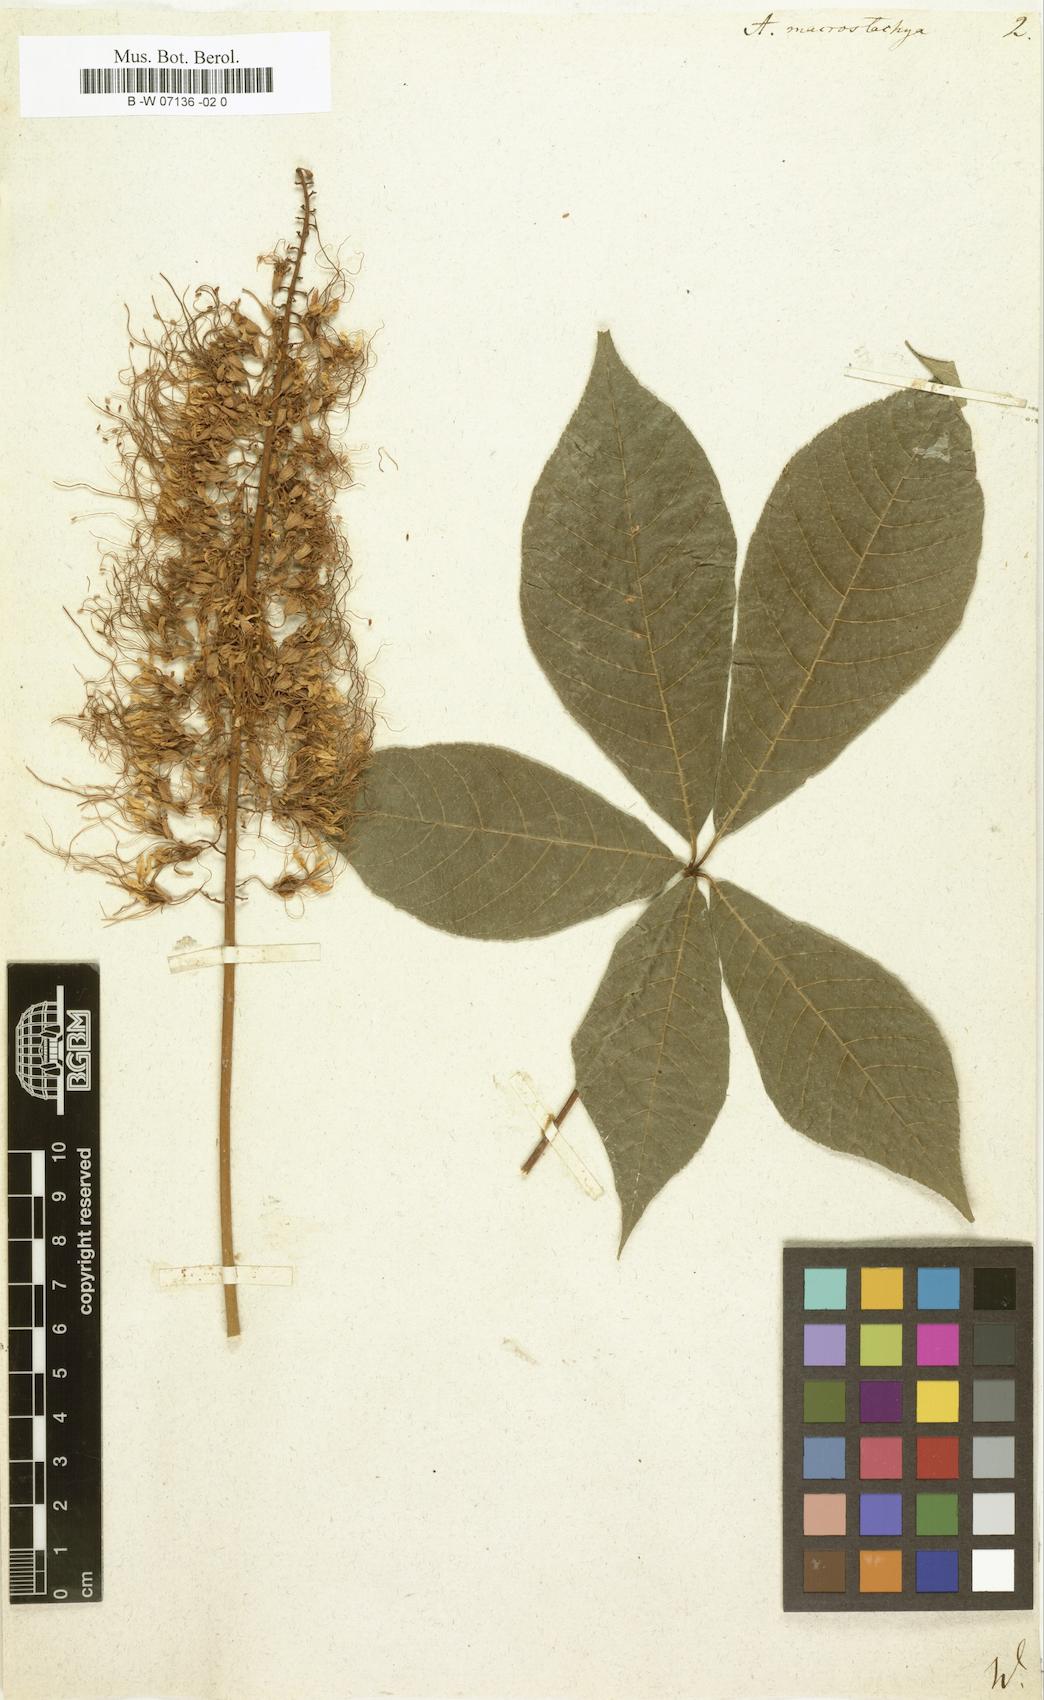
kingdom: Plantae
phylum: Tracheophyta
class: Magnoliopsida
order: Sapindales
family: Sapindaceae
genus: Aesculus
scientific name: Aesculus parviflora
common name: Bottlebrush buckeye
